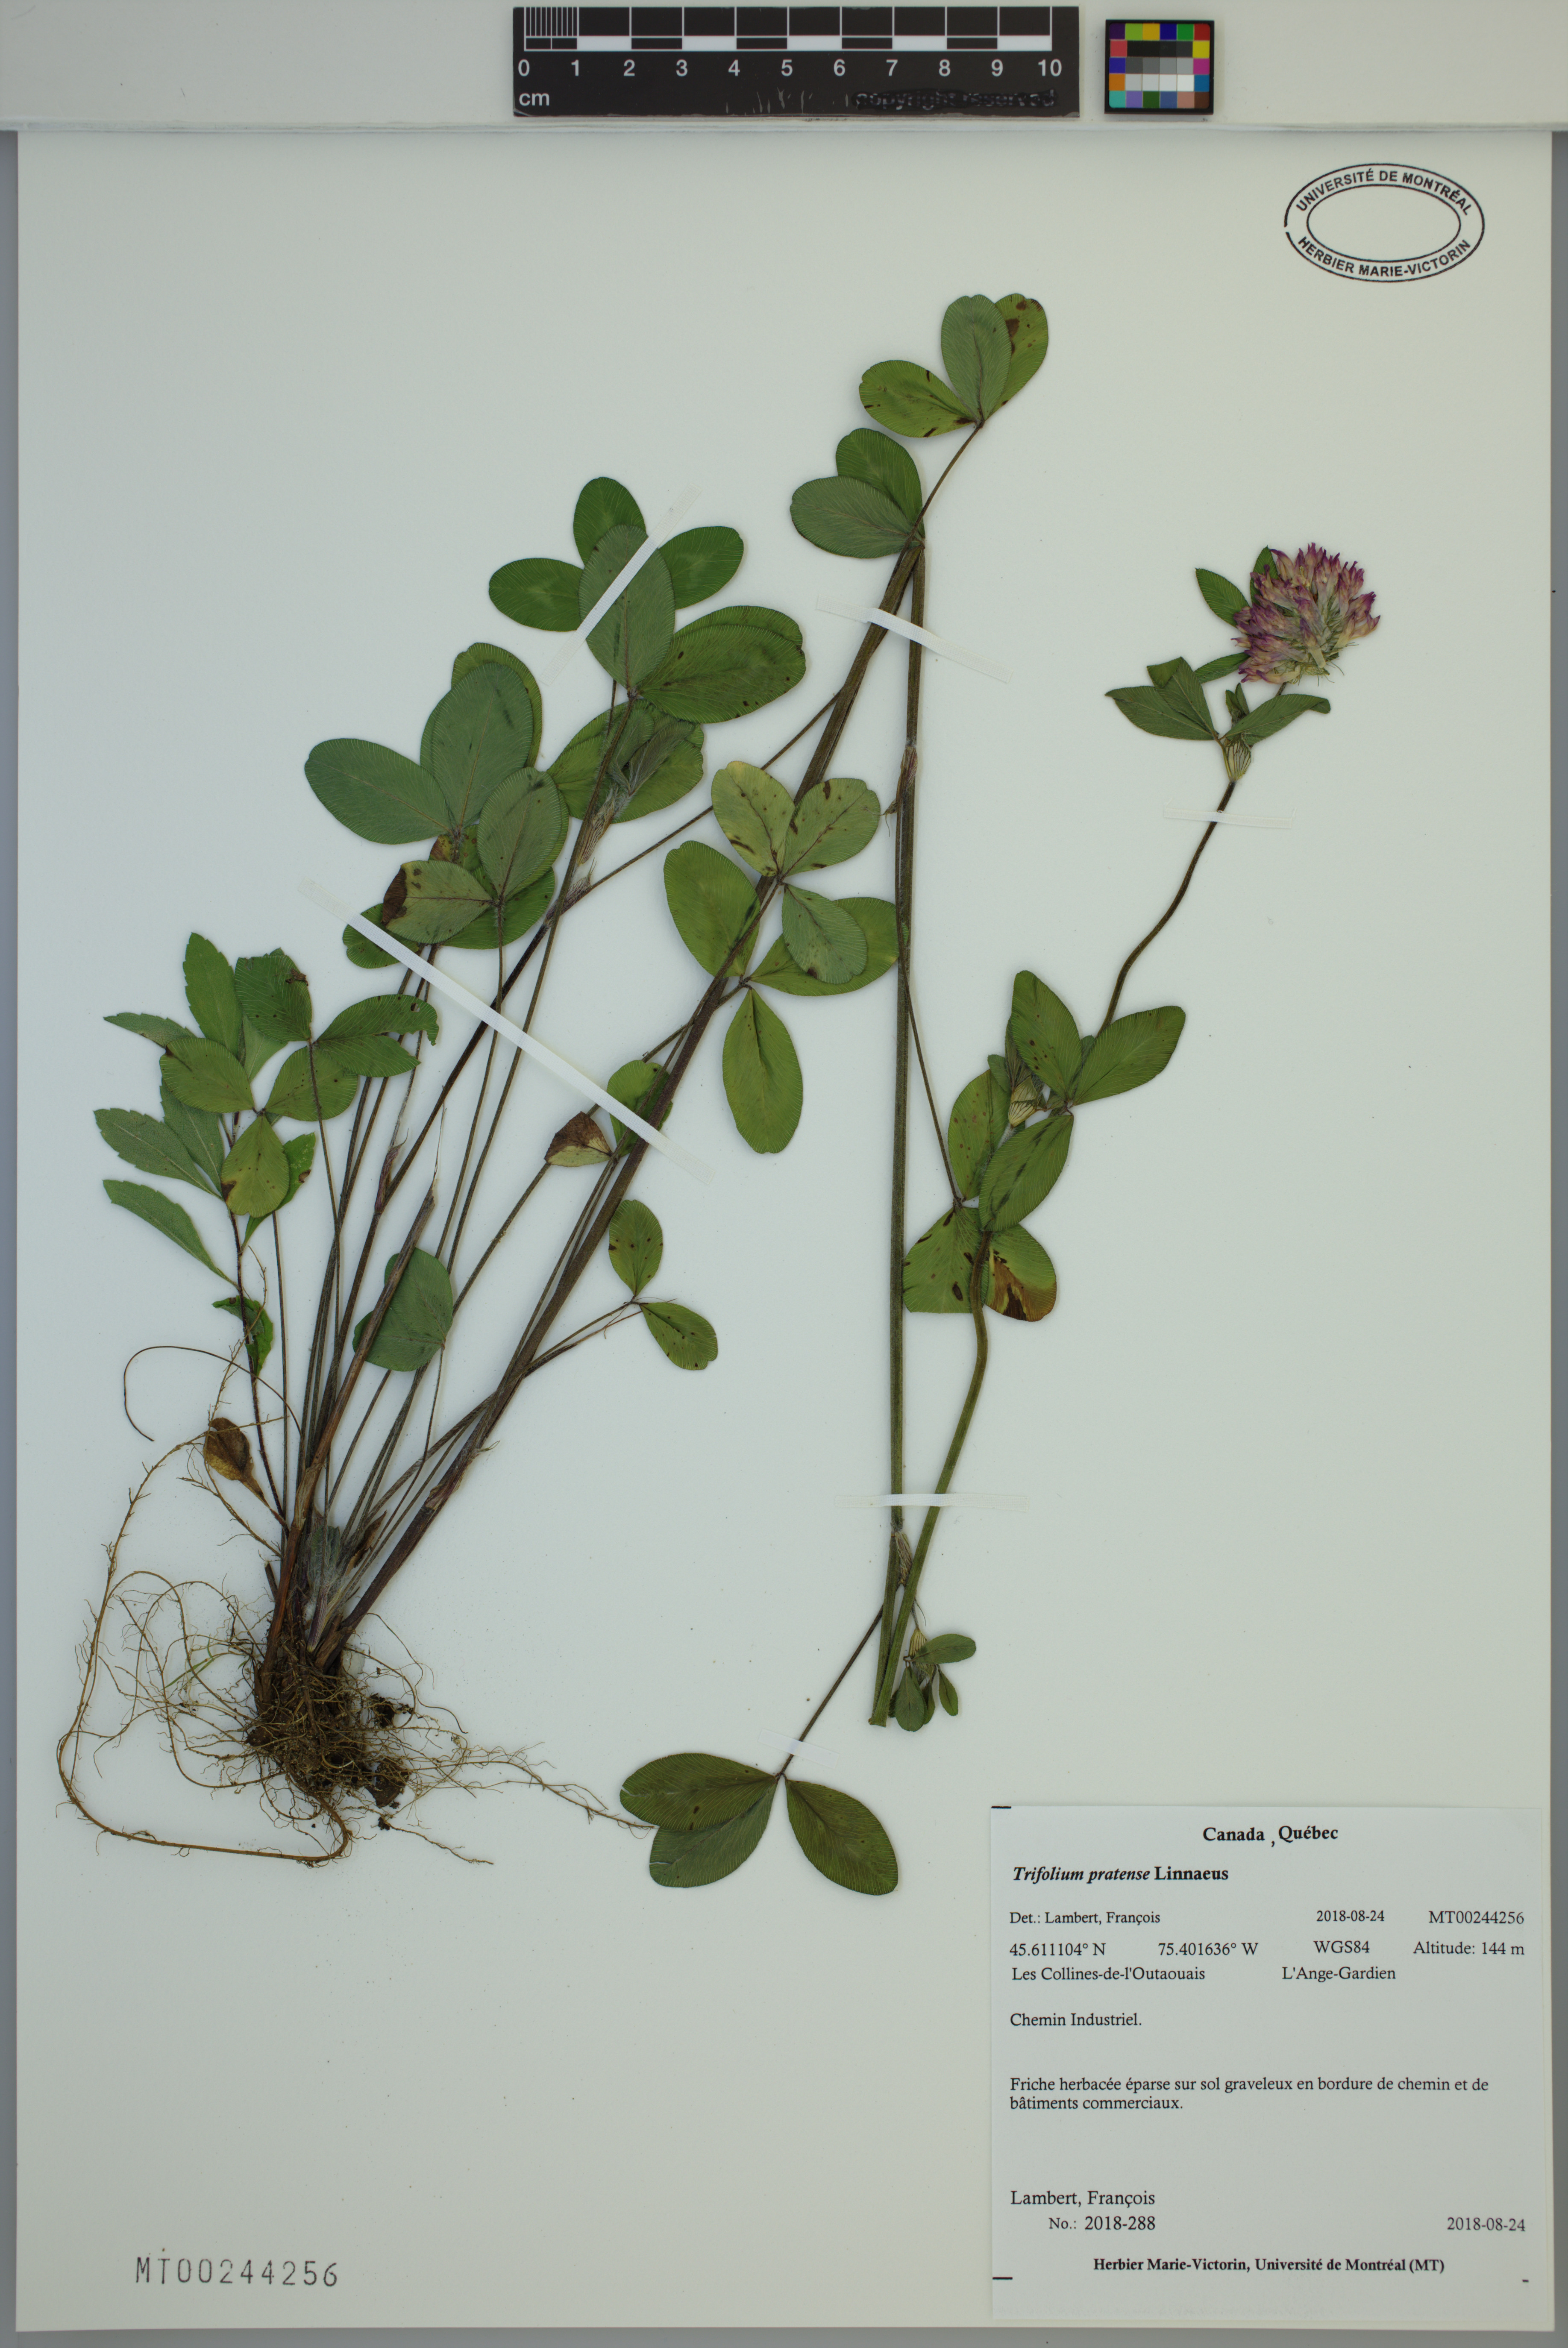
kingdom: Plantae
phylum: Tracheophyta
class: Magnoliopsida
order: Fabales
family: Fabaceae
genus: Trifolium
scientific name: Trifolium pratense
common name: Red clover
